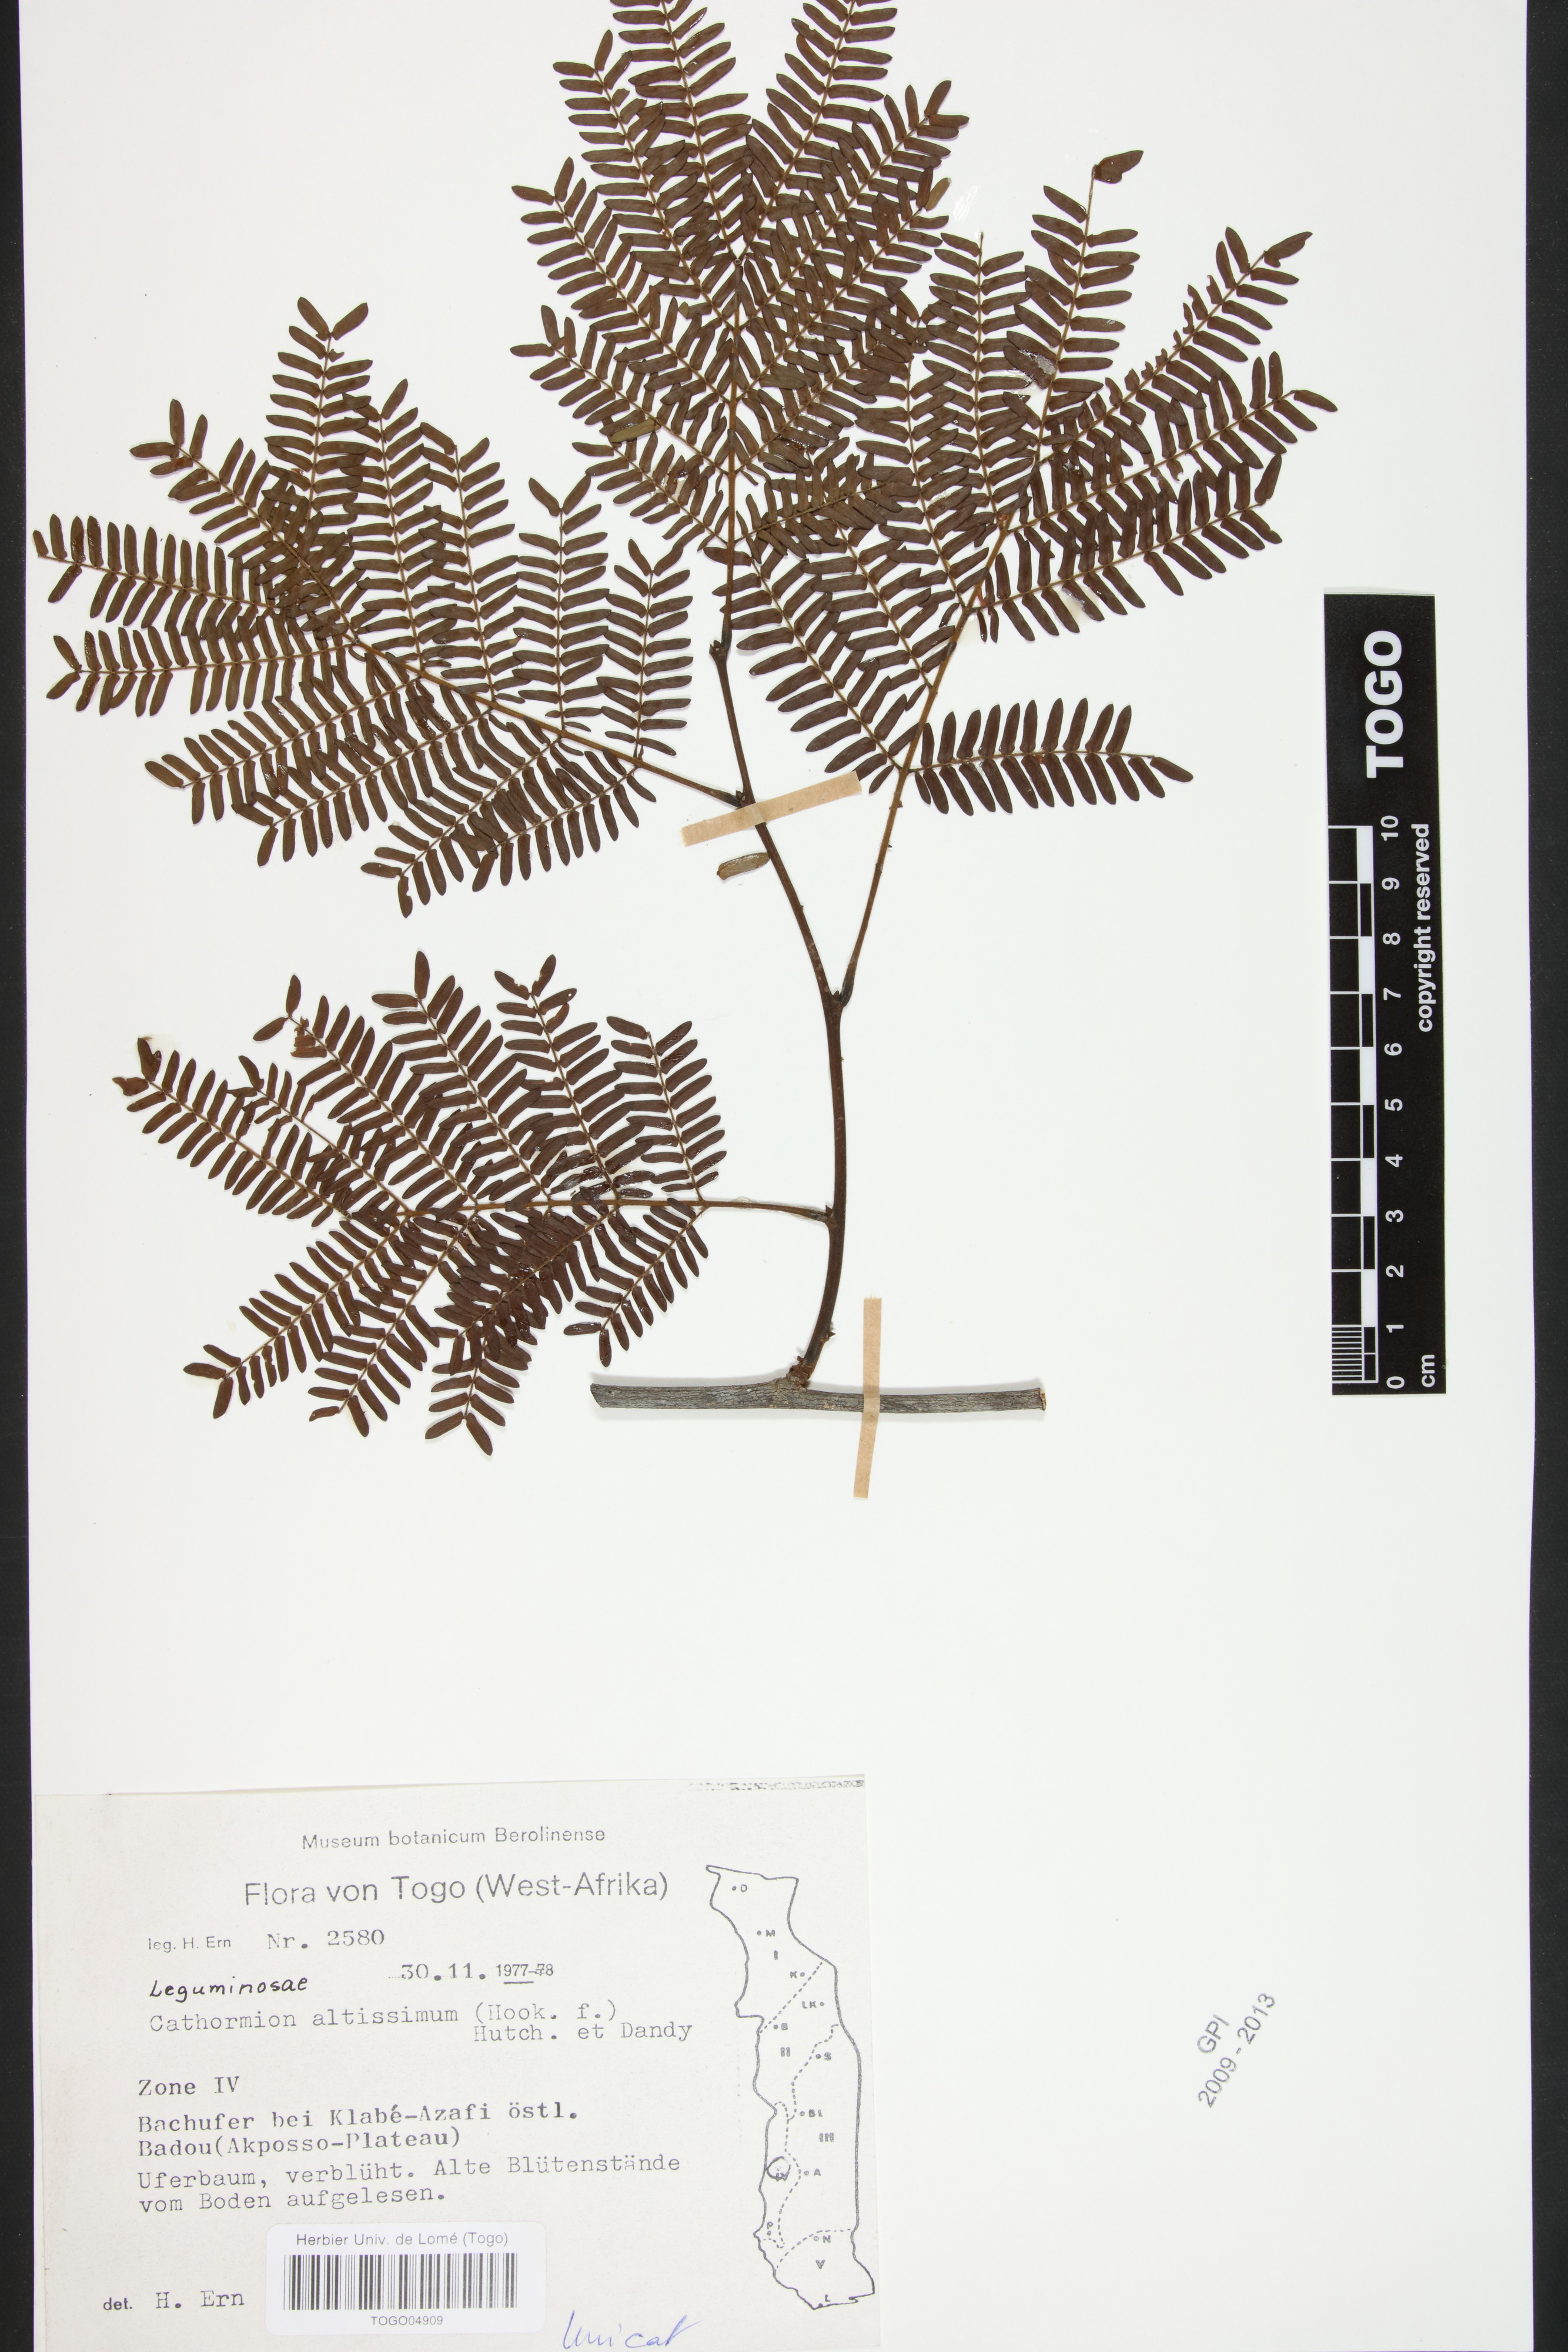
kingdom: Plantae
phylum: Tracheophyta
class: Magnoliopsida
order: Fabales
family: Fabaceae
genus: Albizia
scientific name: Albizia altissima
